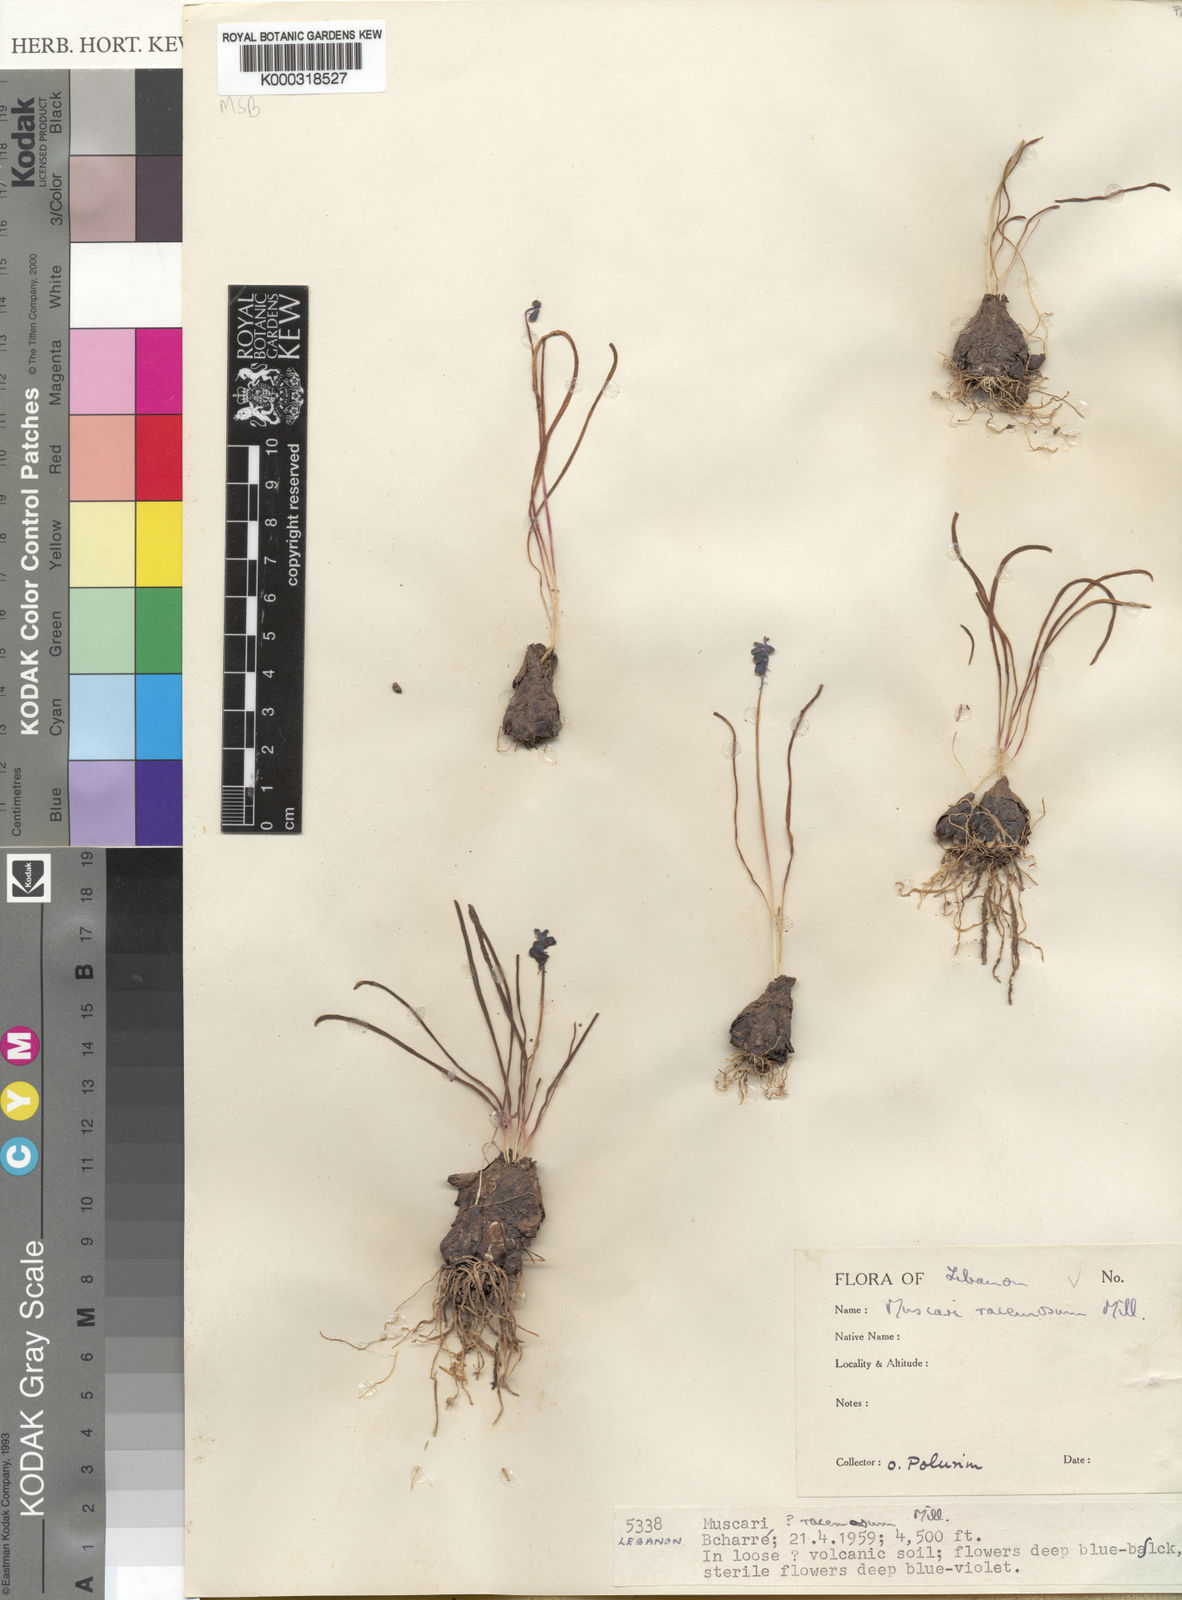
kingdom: Plantae
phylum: Tracheophyta
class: Liliopsida
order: Asparagales
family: Asparagaceae
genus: Muscari
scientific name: Muscari
